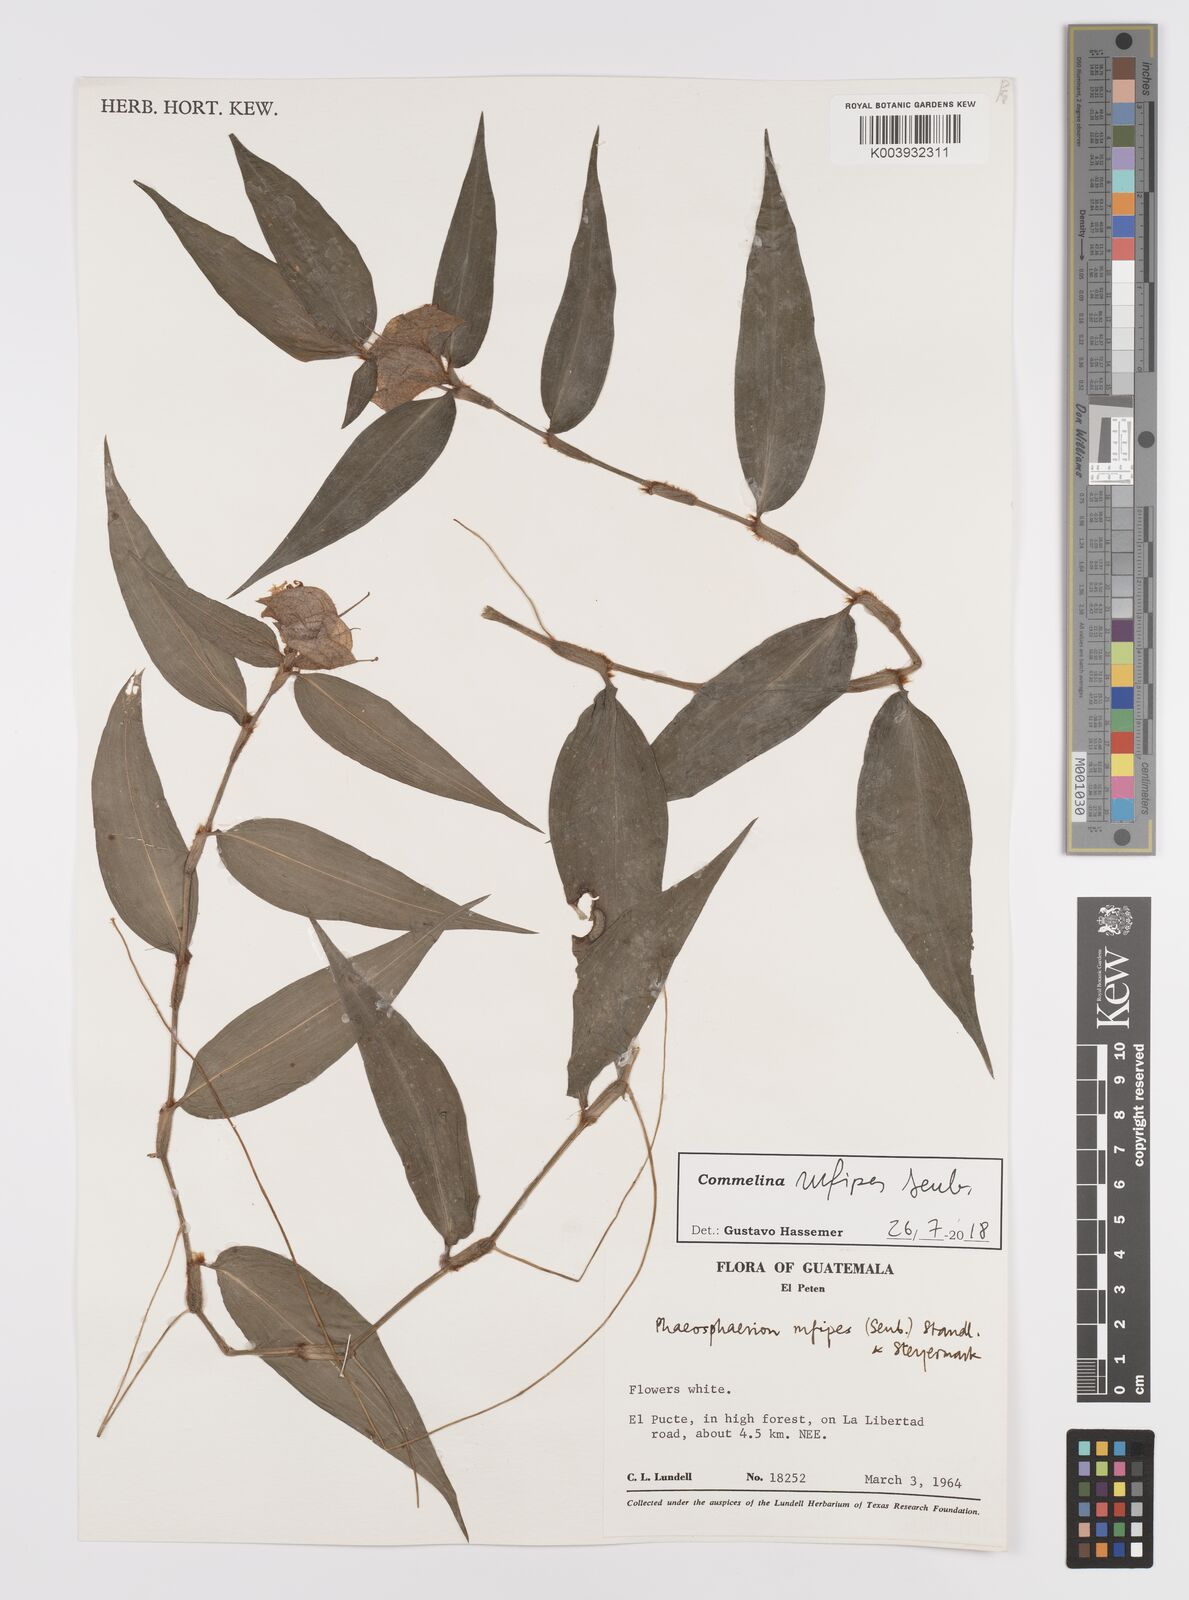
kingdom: Plantae
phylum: Tracheophyta
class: Liliopsida
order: Commelinales
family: Commelinaceae
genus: Commelina
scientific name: Commelina rufipes
